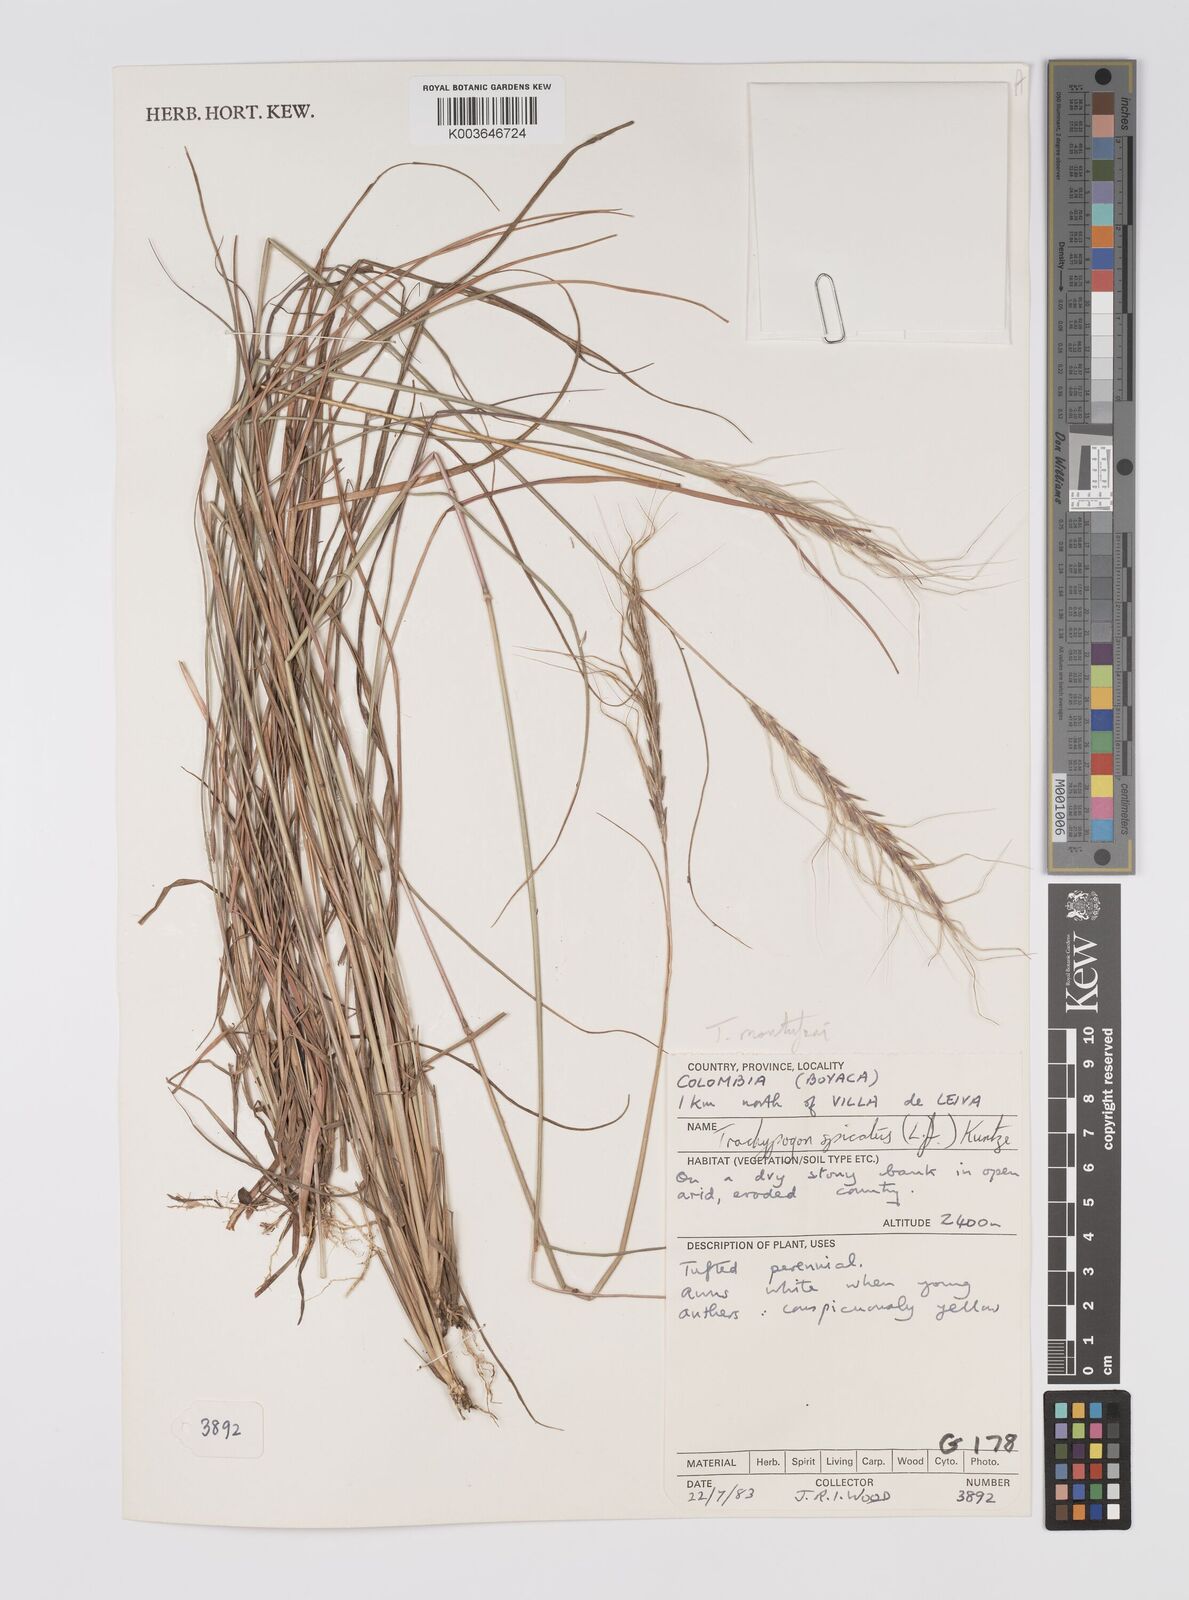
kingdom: Plantae
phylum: Tracheophyta
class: Liliopsida
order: Poales
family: Poaceae
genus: Trachypogon
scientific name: Trachypogon spicatus
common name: Crinkle-awn
